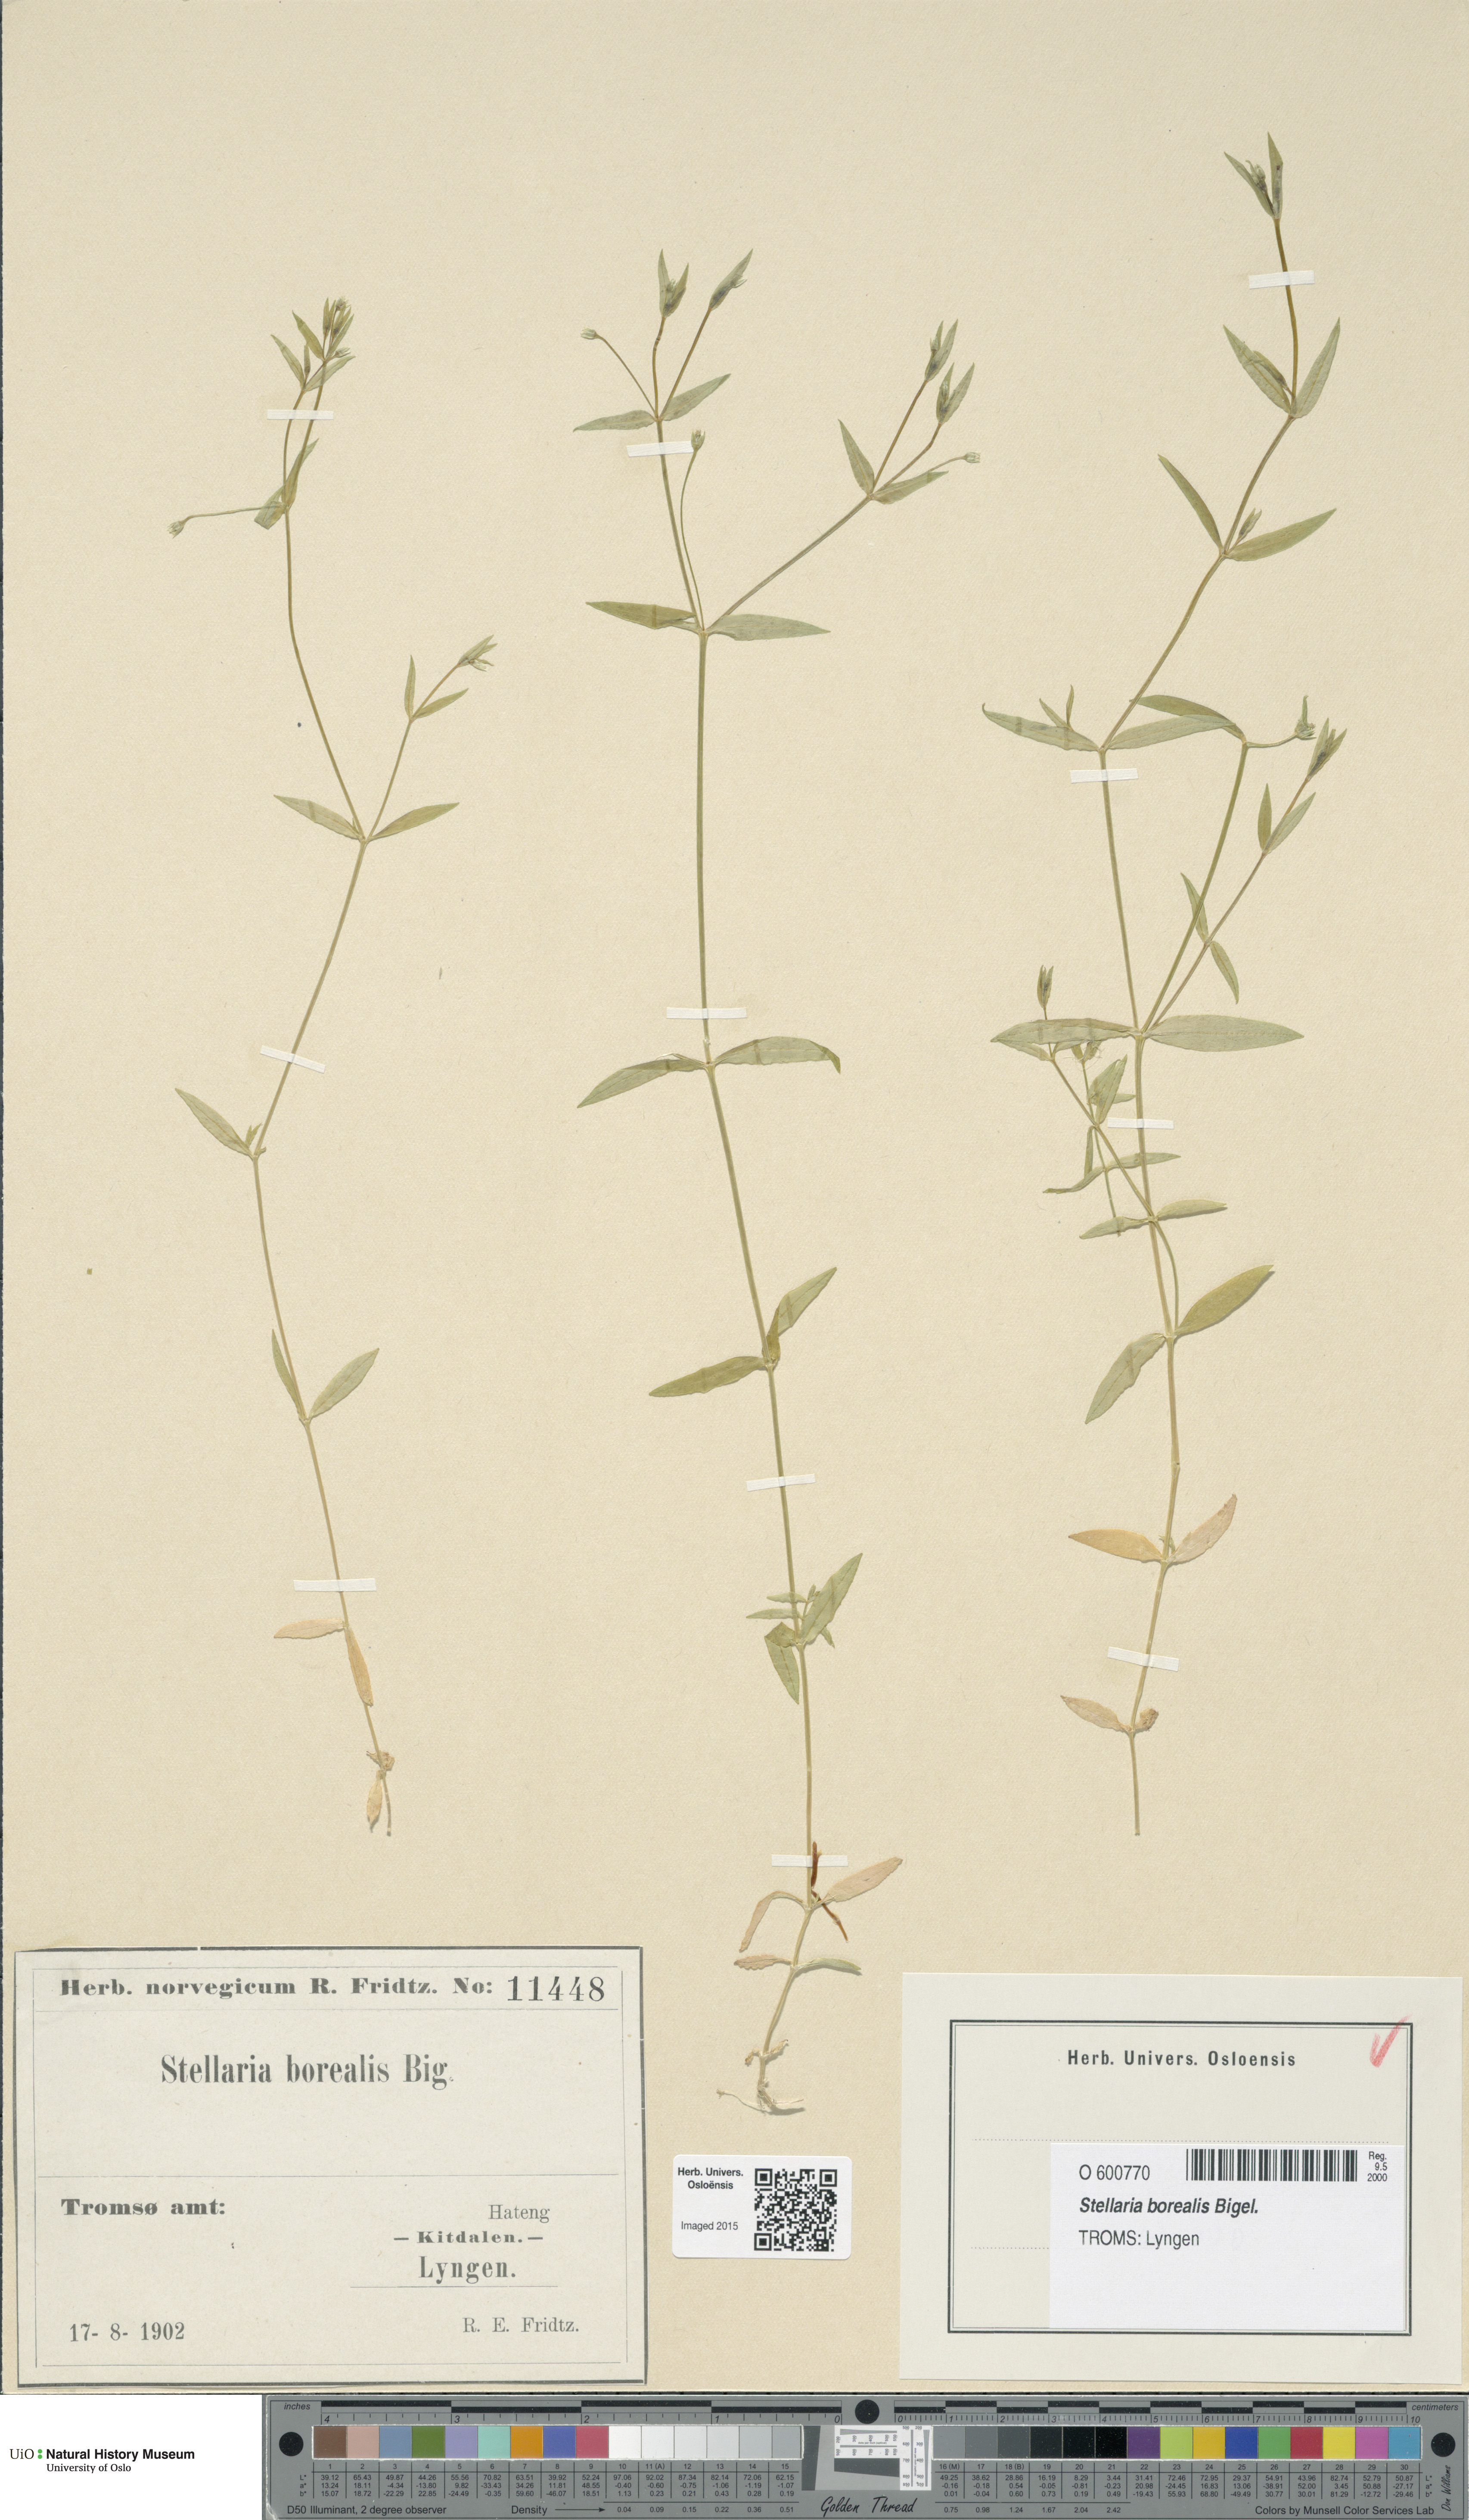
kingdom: Plantae
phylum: Tracheophyta
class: Magnoliopsida
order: Caryophyllales
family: Caryophyllaceae
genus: Stellaria
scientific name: Stellaria borealis
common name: Boreal starwort
